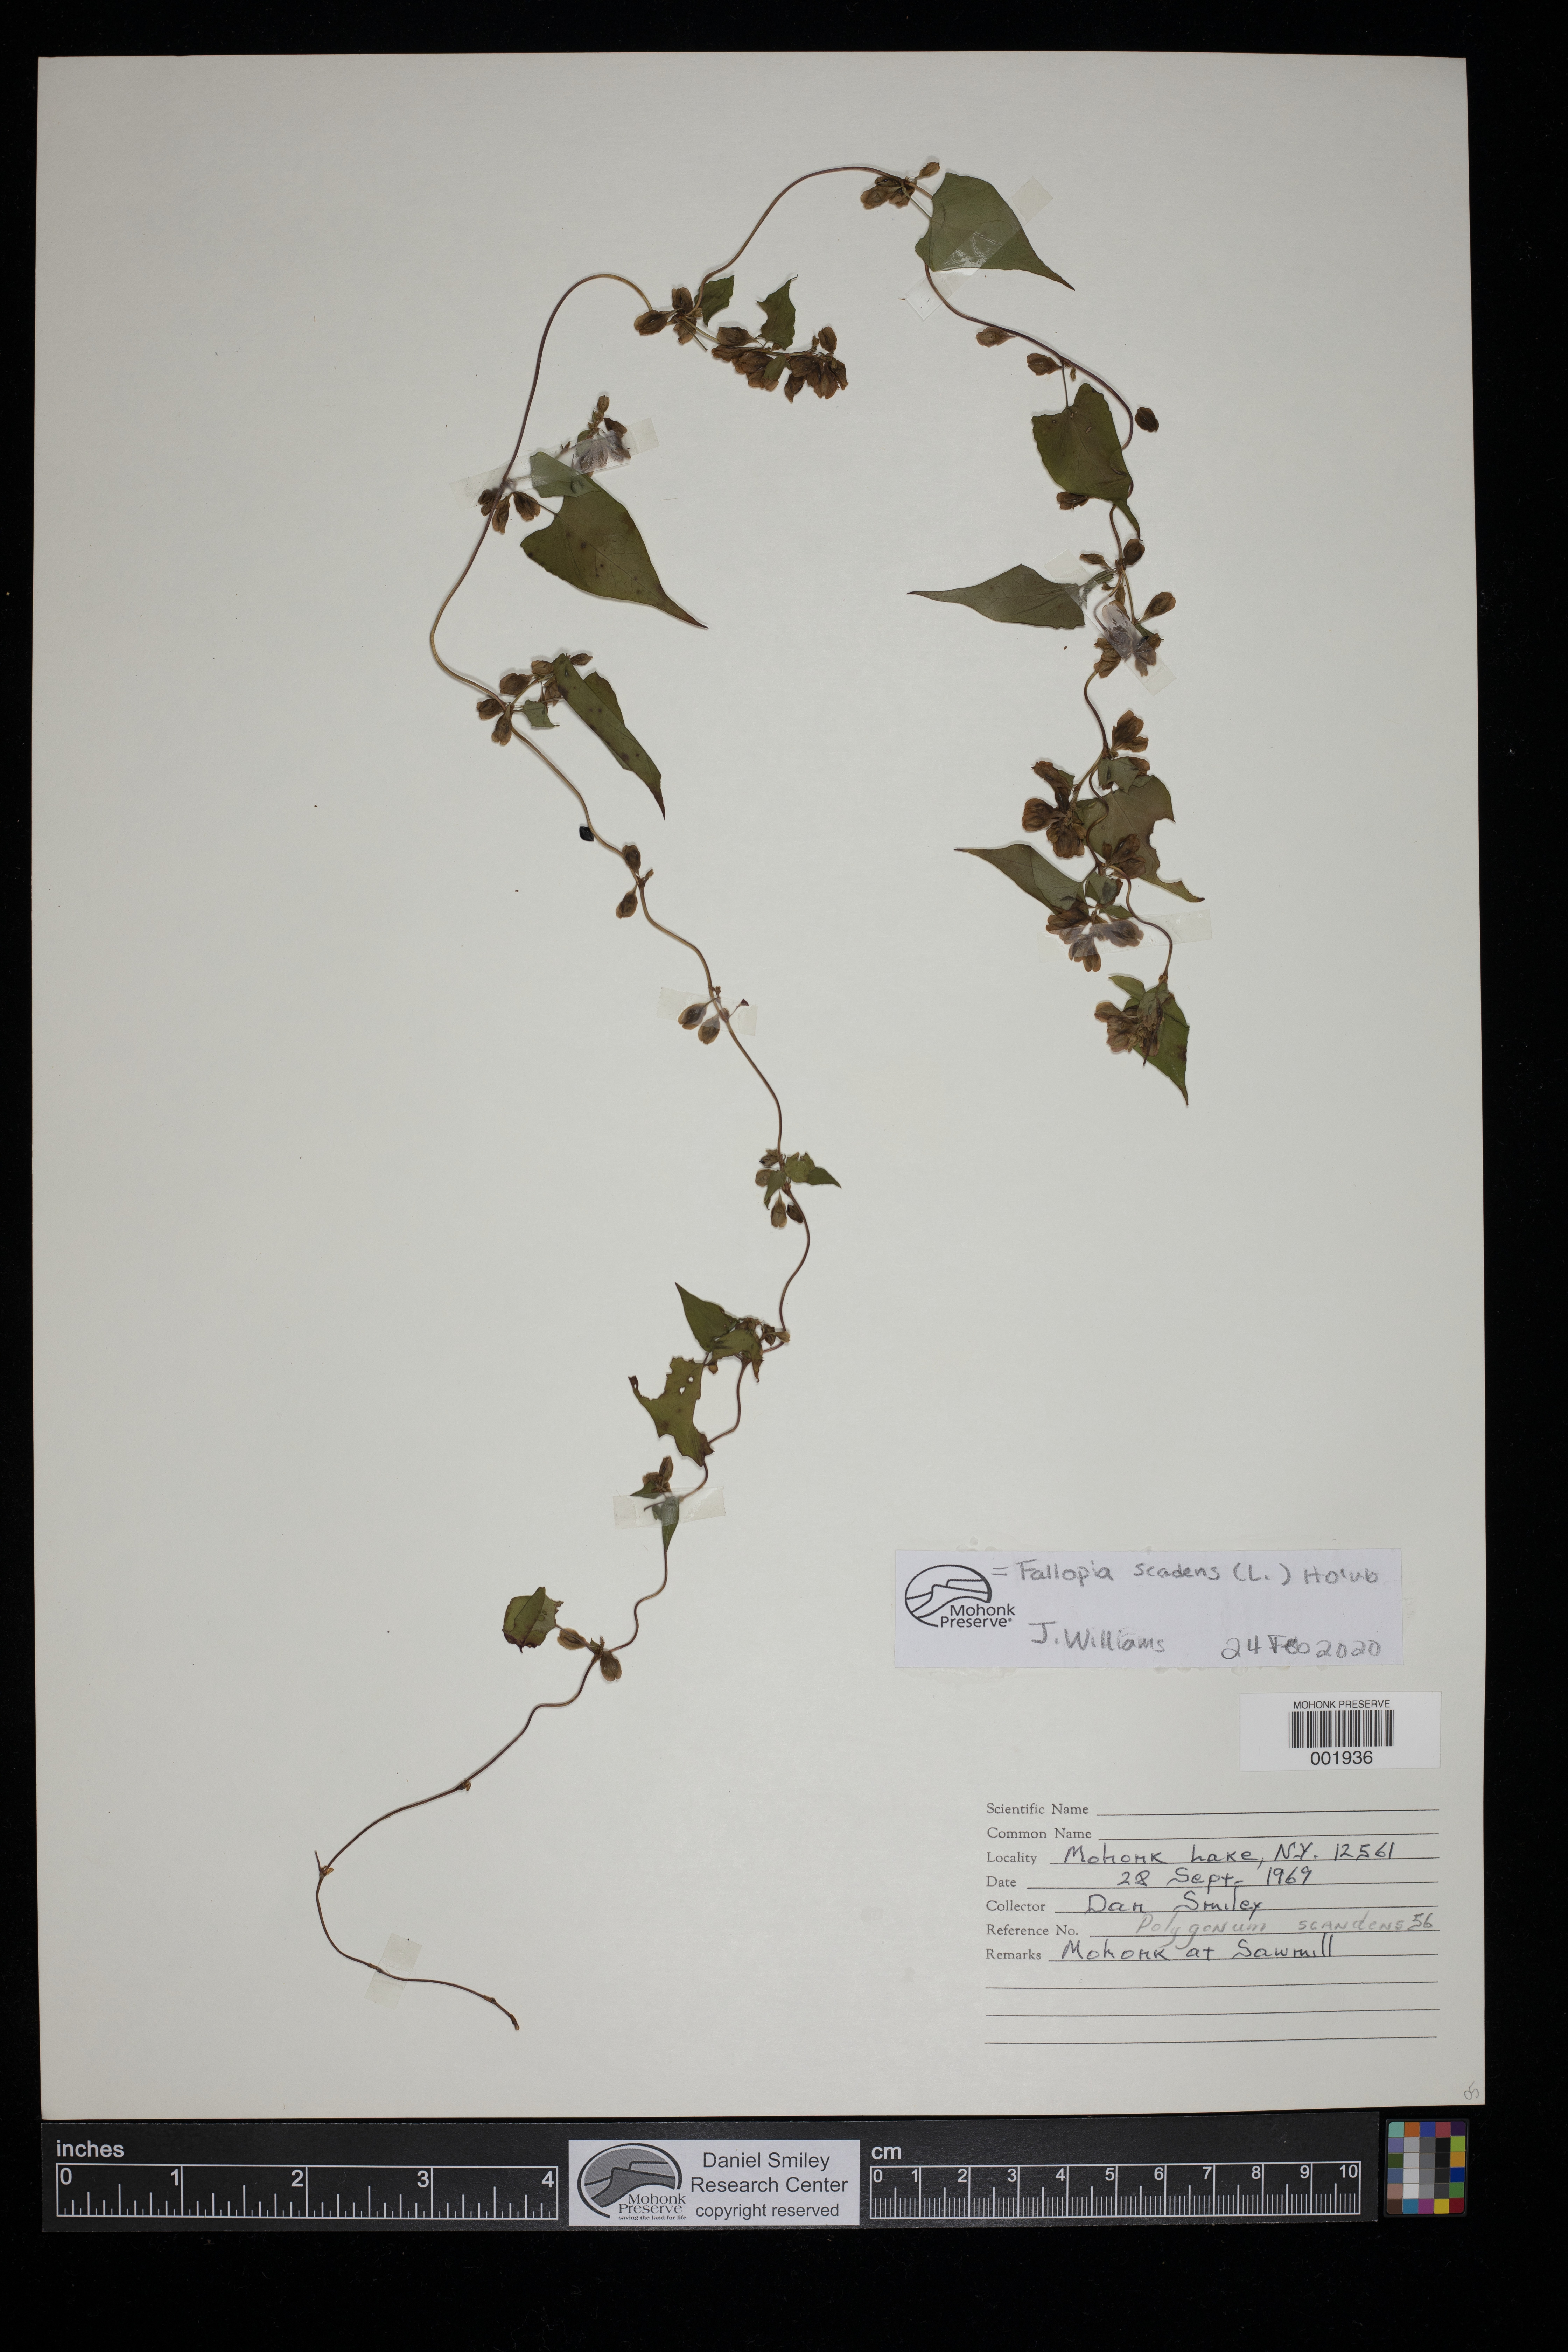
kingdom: Plantae
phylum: Tracheophyta
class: Magnoliopsida
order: Caryophyllales
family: Polygonaceae
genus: Fallopia
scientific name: Fallopia scandens
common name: Climbing false buckwheat
